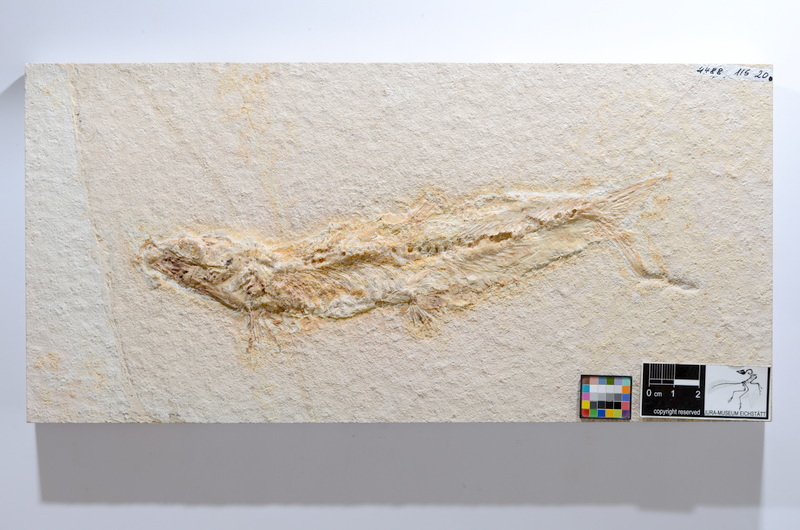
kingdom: Animalia
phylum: Chordata
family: Ascalaboidae
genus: Tharsis
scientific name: Tharsis dubius
